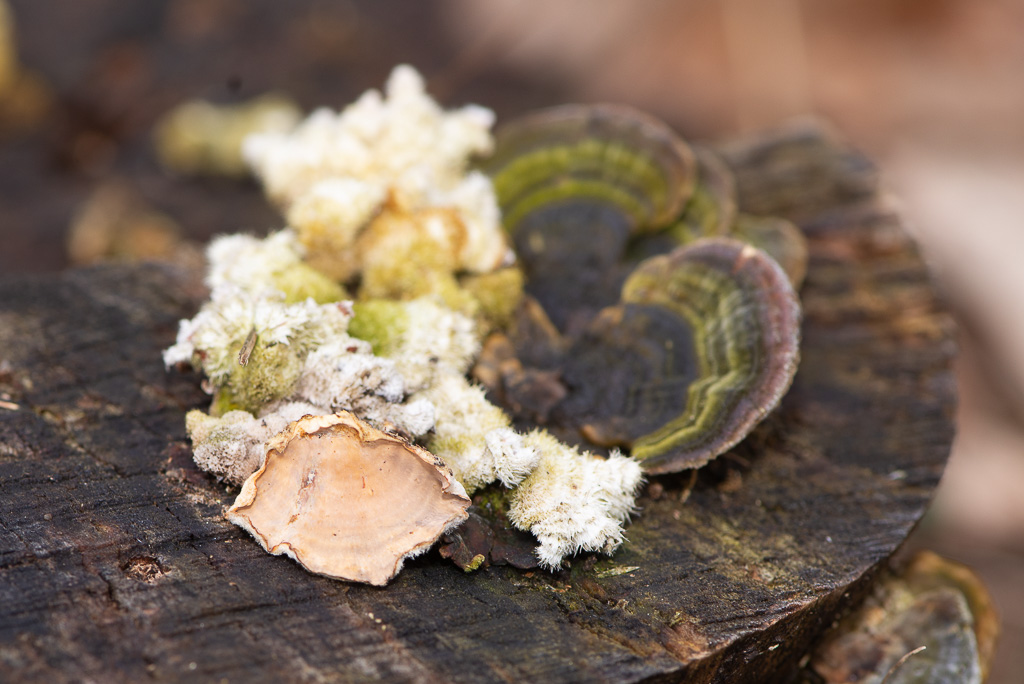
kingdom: Fungi
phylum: Basidiomycota
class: Agaricomycetes
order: Russulales
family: Stereaceae
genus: Stereum
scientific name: Stereum hirsutum
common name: håret lædersvamp
